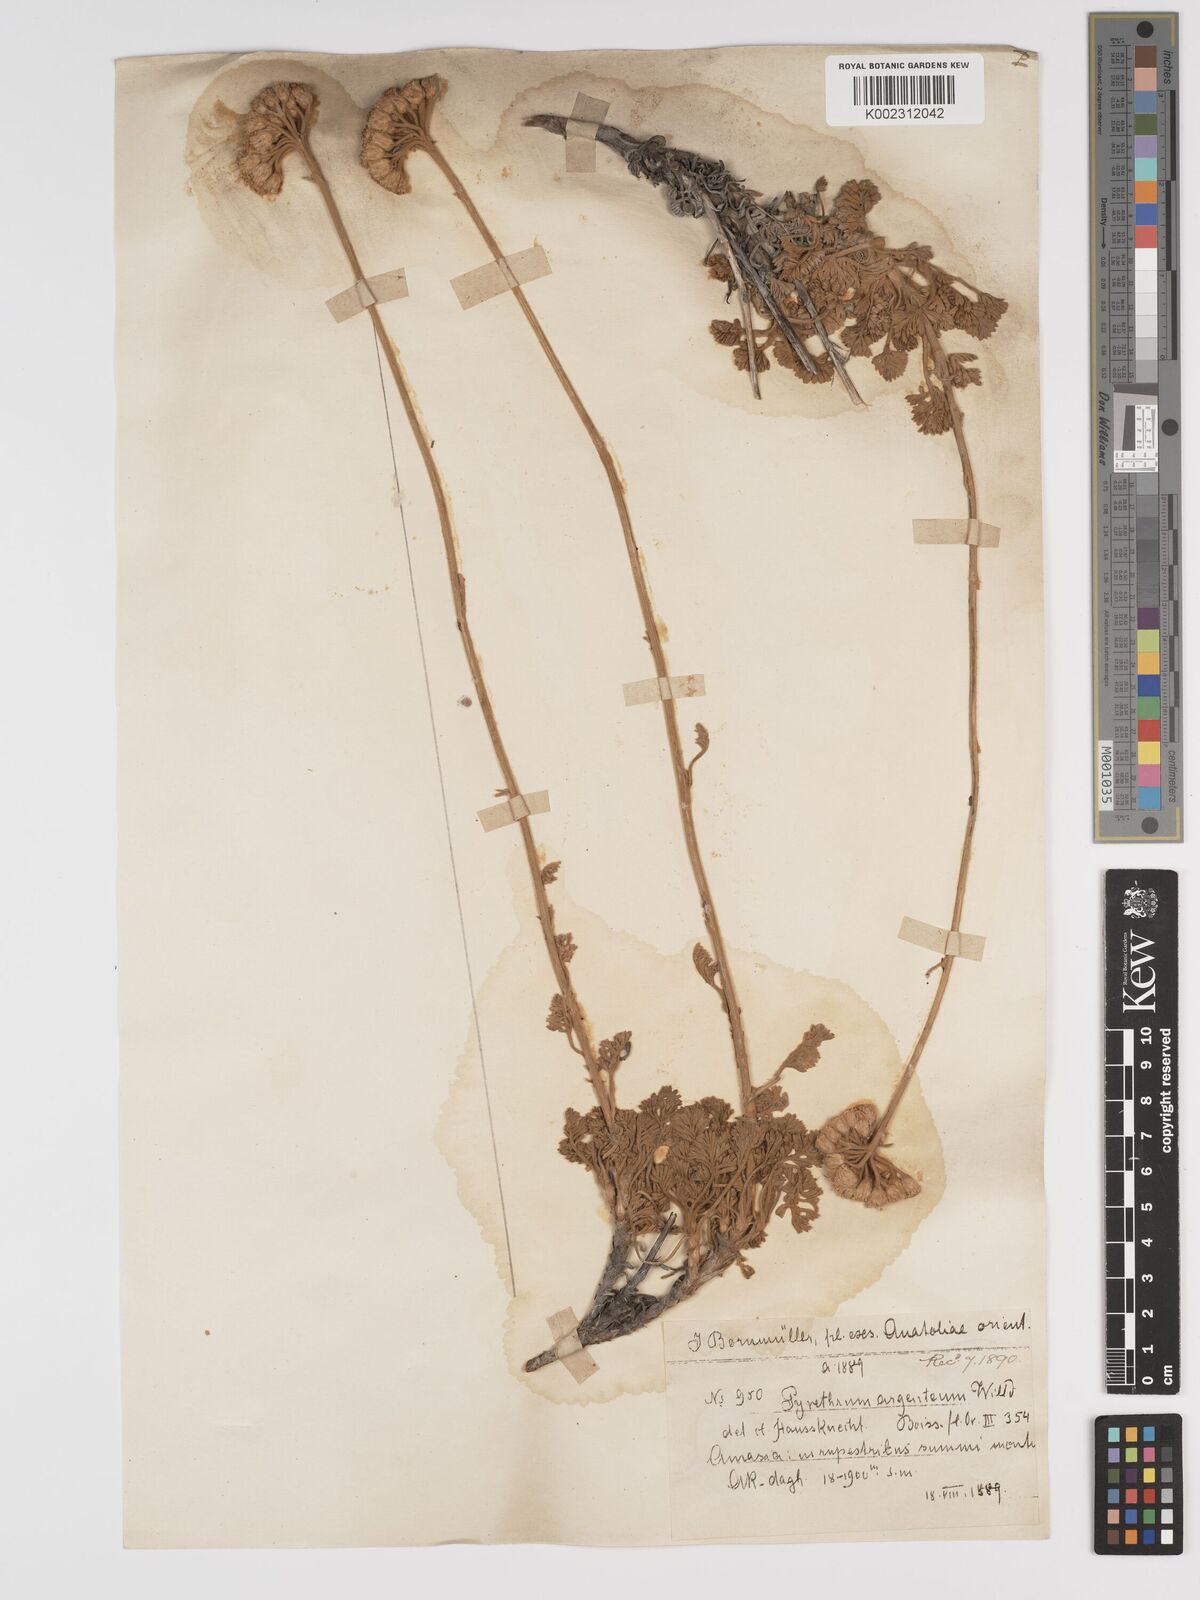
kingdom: Plantae
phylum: Tracheophyta
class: Magnoliopsida
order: Asterales
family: Asteraceae
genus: Tanacetum
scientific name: Tanacetum argenteum
